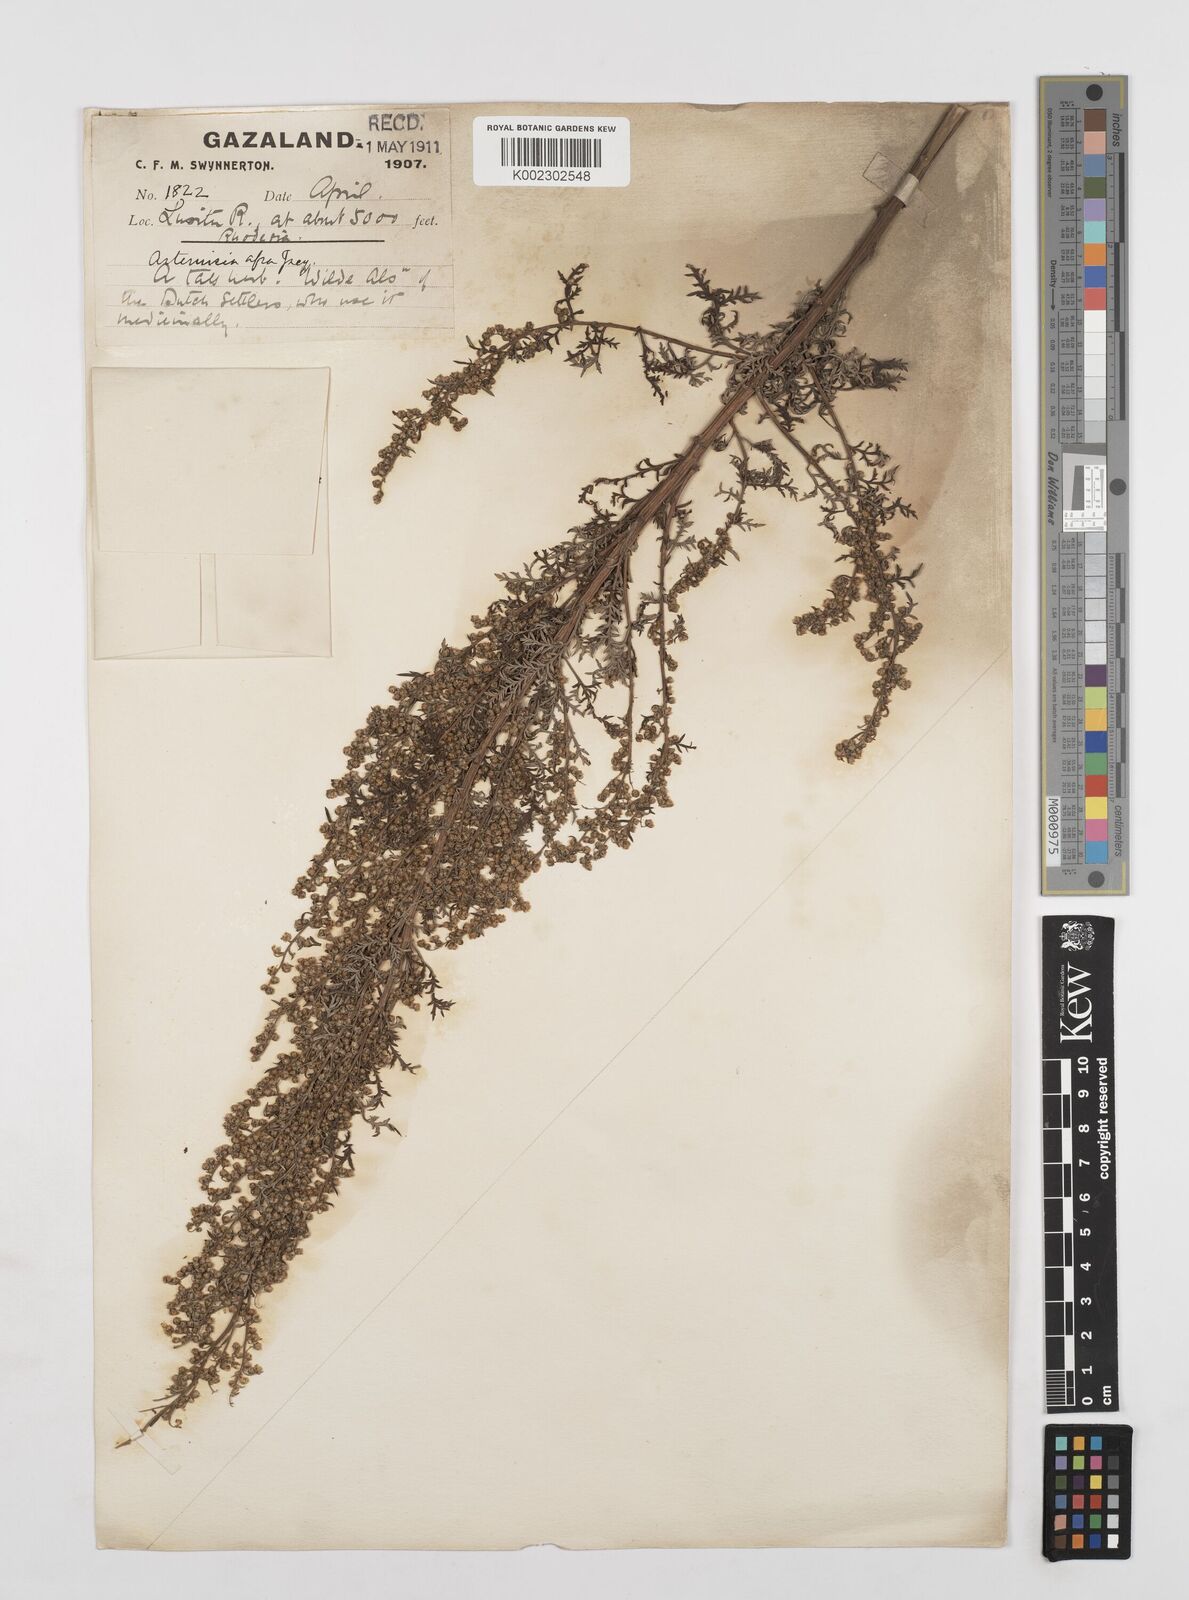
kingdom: Plantae
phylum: Tracheophyta
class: Magnoliopsida
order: Asterales
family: Asteraceae
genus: Artemisia
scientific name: Artemisia afra
